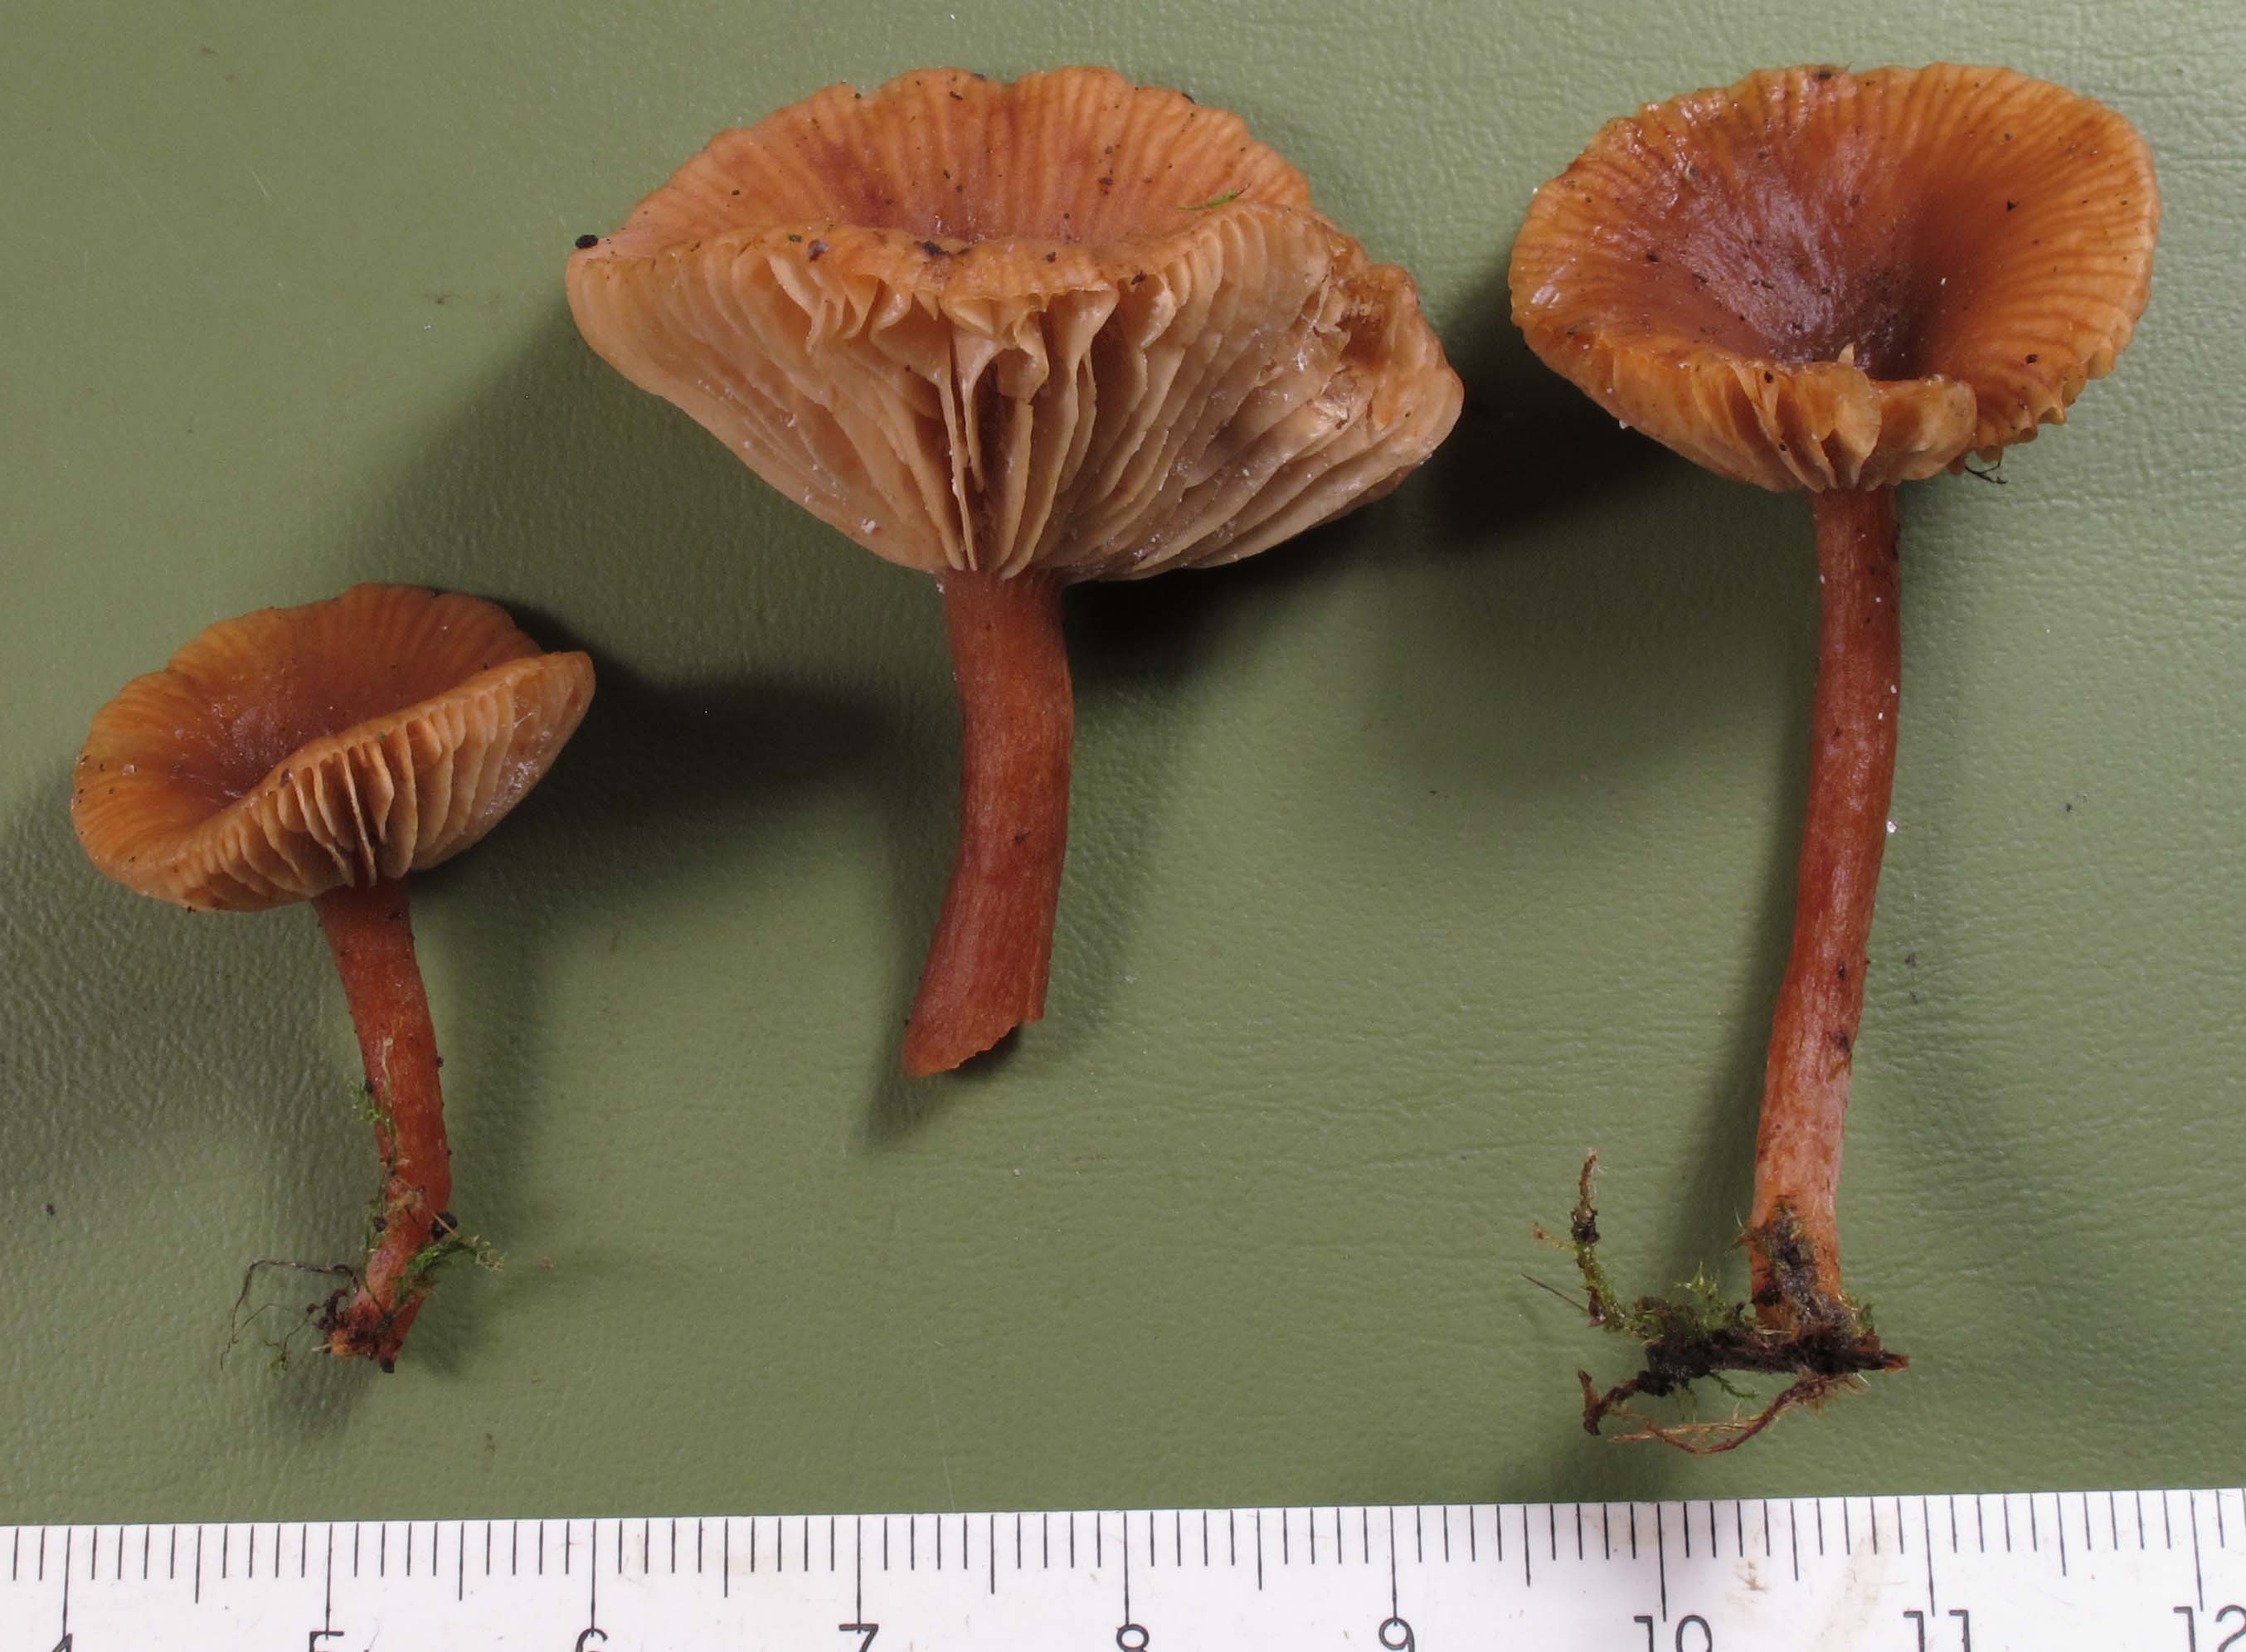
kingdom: Fungi
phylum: Basidiomycota
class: Agaricomycetes
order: Russulales
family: Russulaceae
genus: Lactarius
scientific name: Lactarius obscuratus
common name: elle-mælkehat
